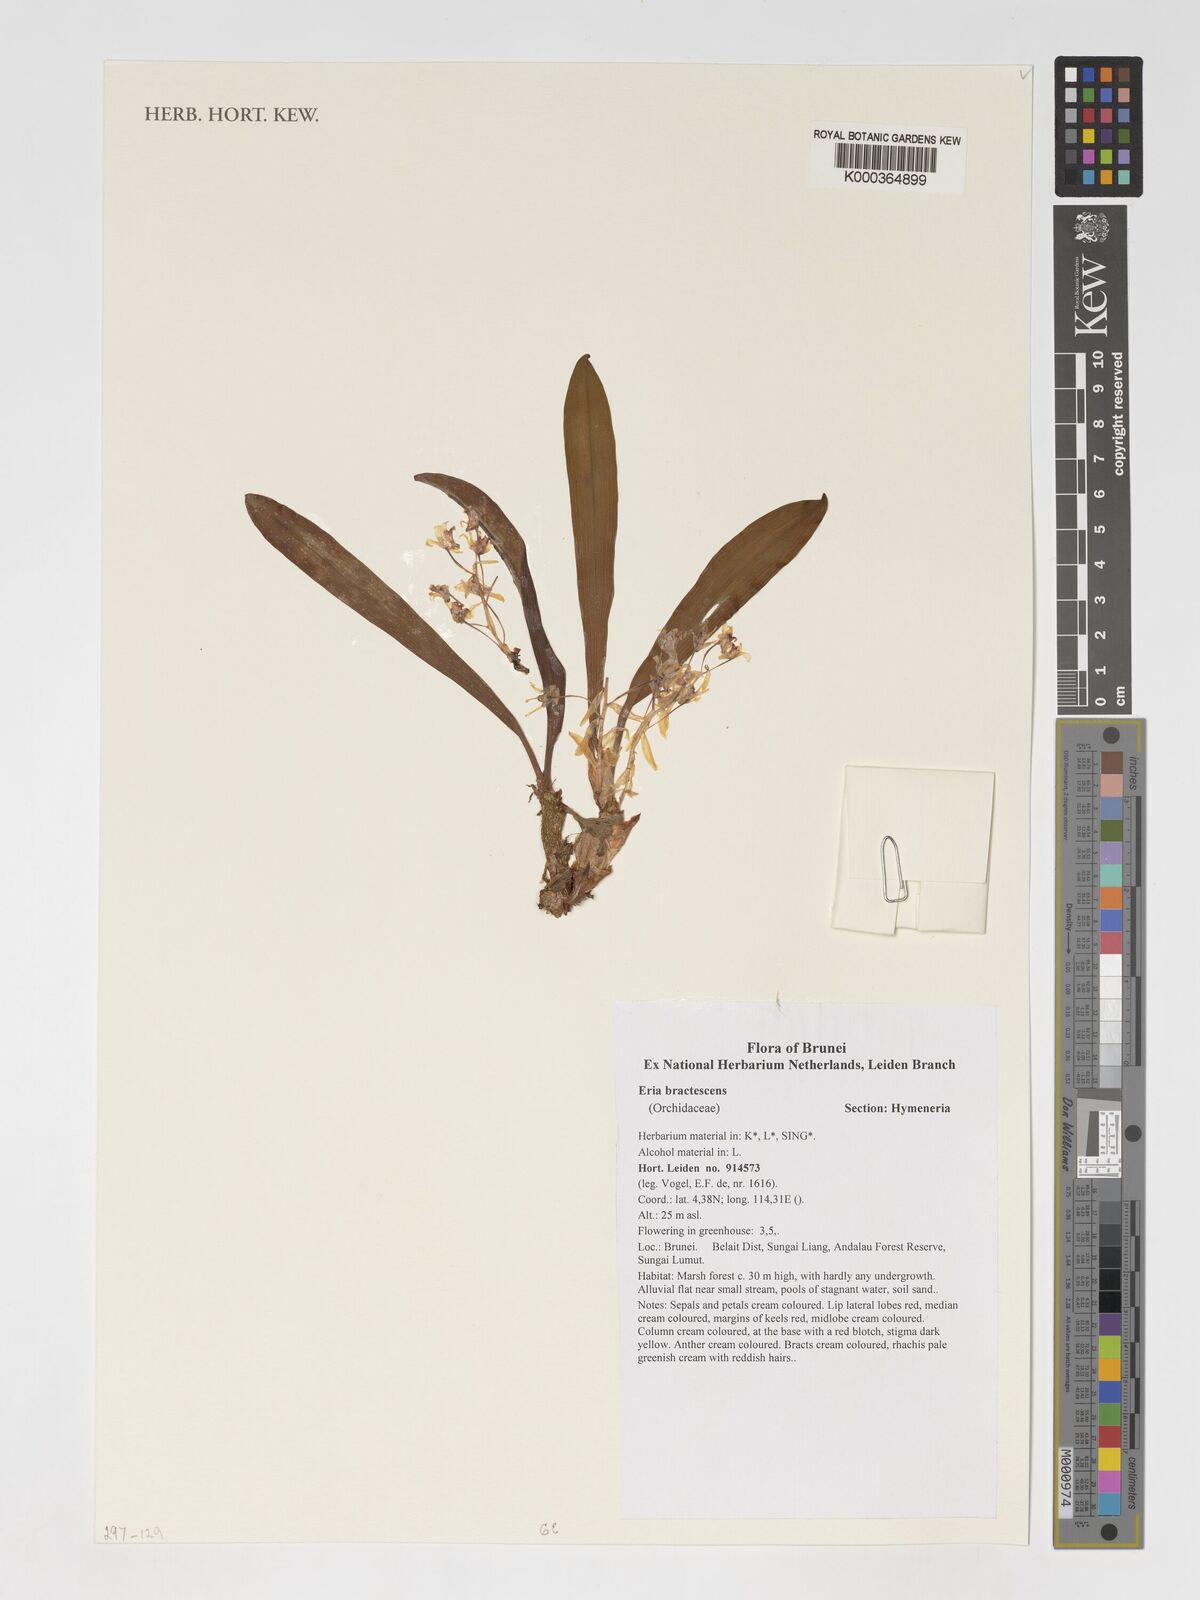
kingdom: Plantae
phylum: Tracheophyta
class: Liliopsida
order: Asparagales
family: Orchidaceae
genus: Pinalia
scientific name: Pinalia bractescens
